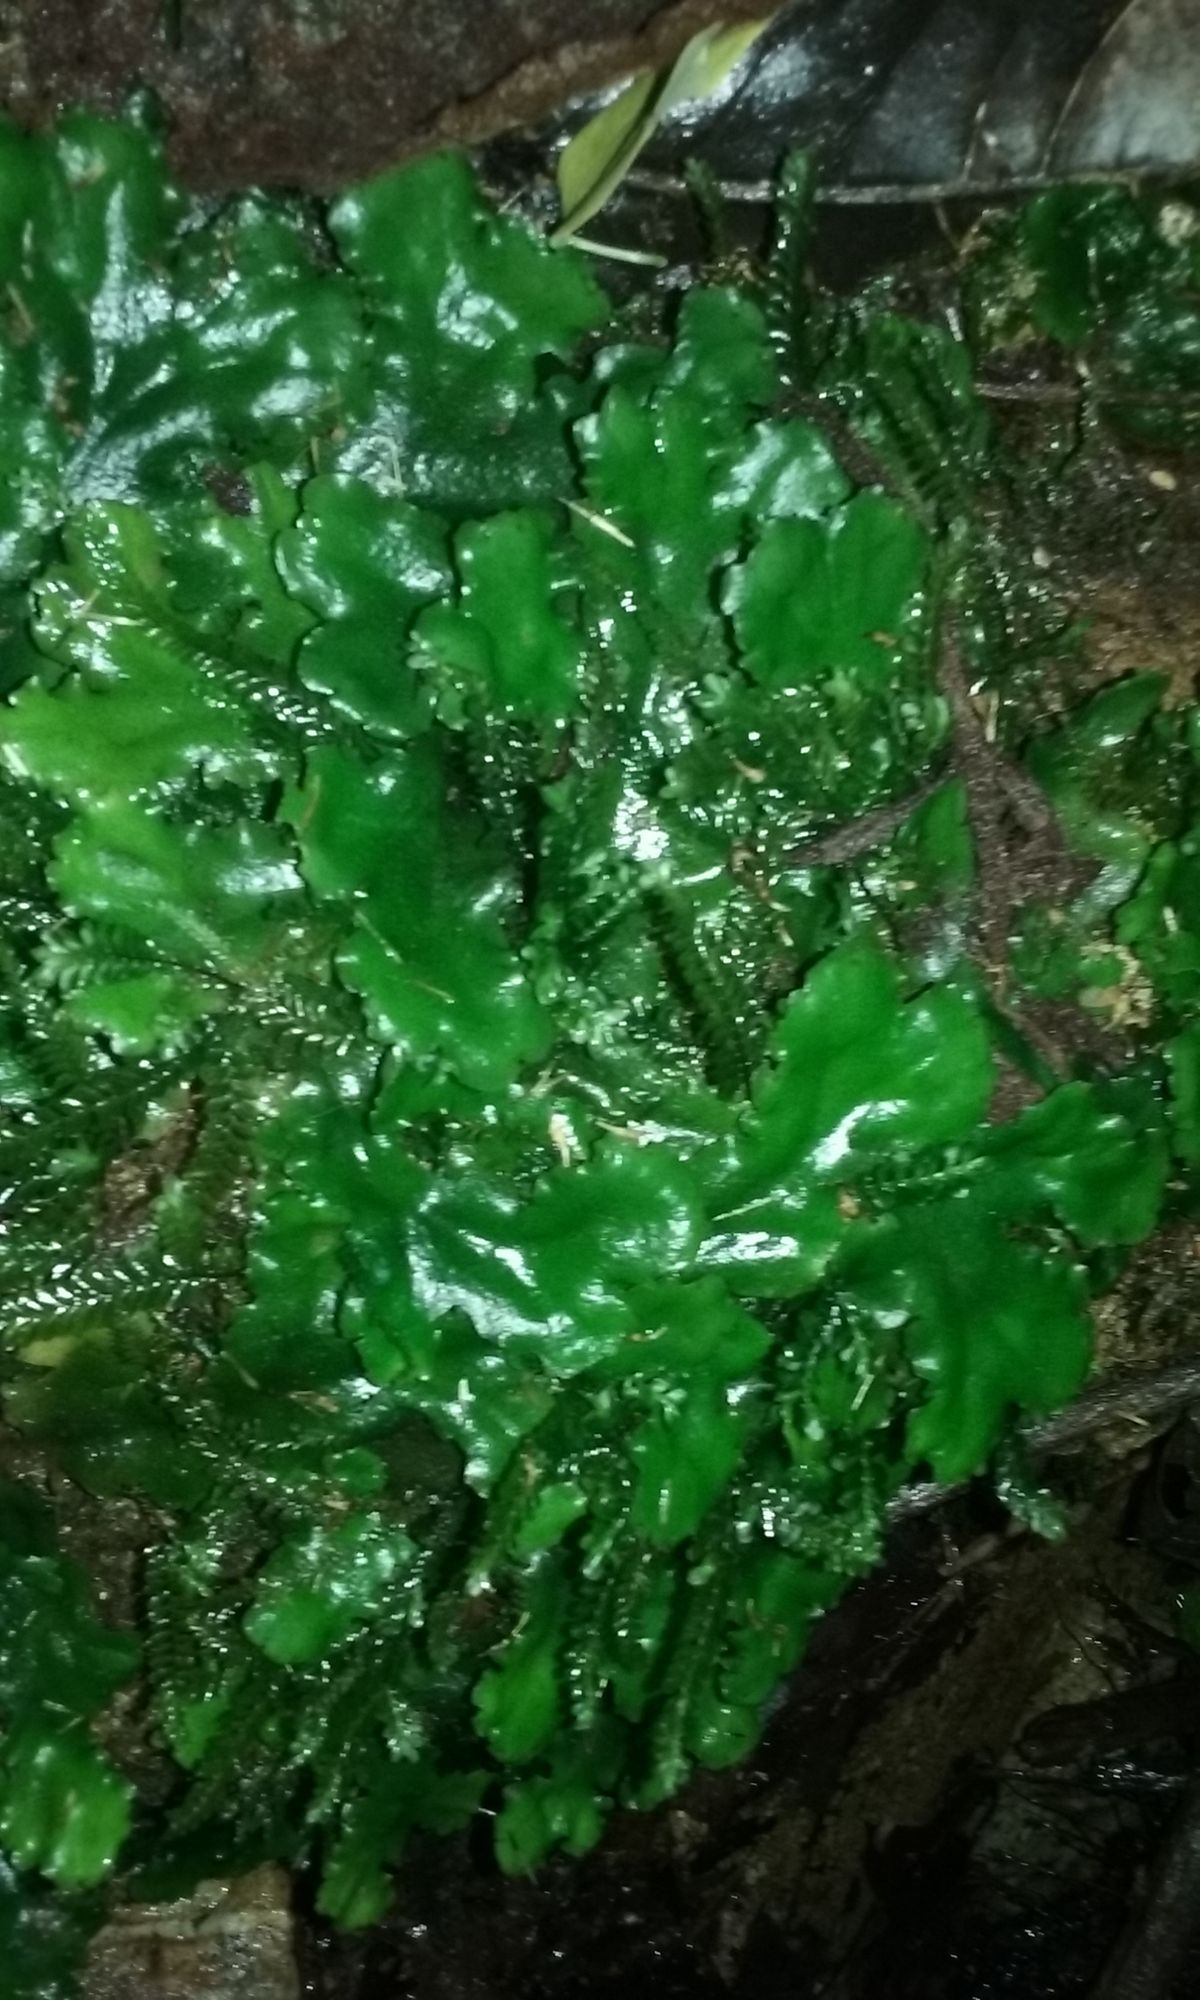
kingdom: Plantae
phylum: Marchantiophyta
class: Marchantiopsida
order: Marchantiales
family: Monocleaceae
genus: Monoclea
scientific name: Monoclea gottschei
